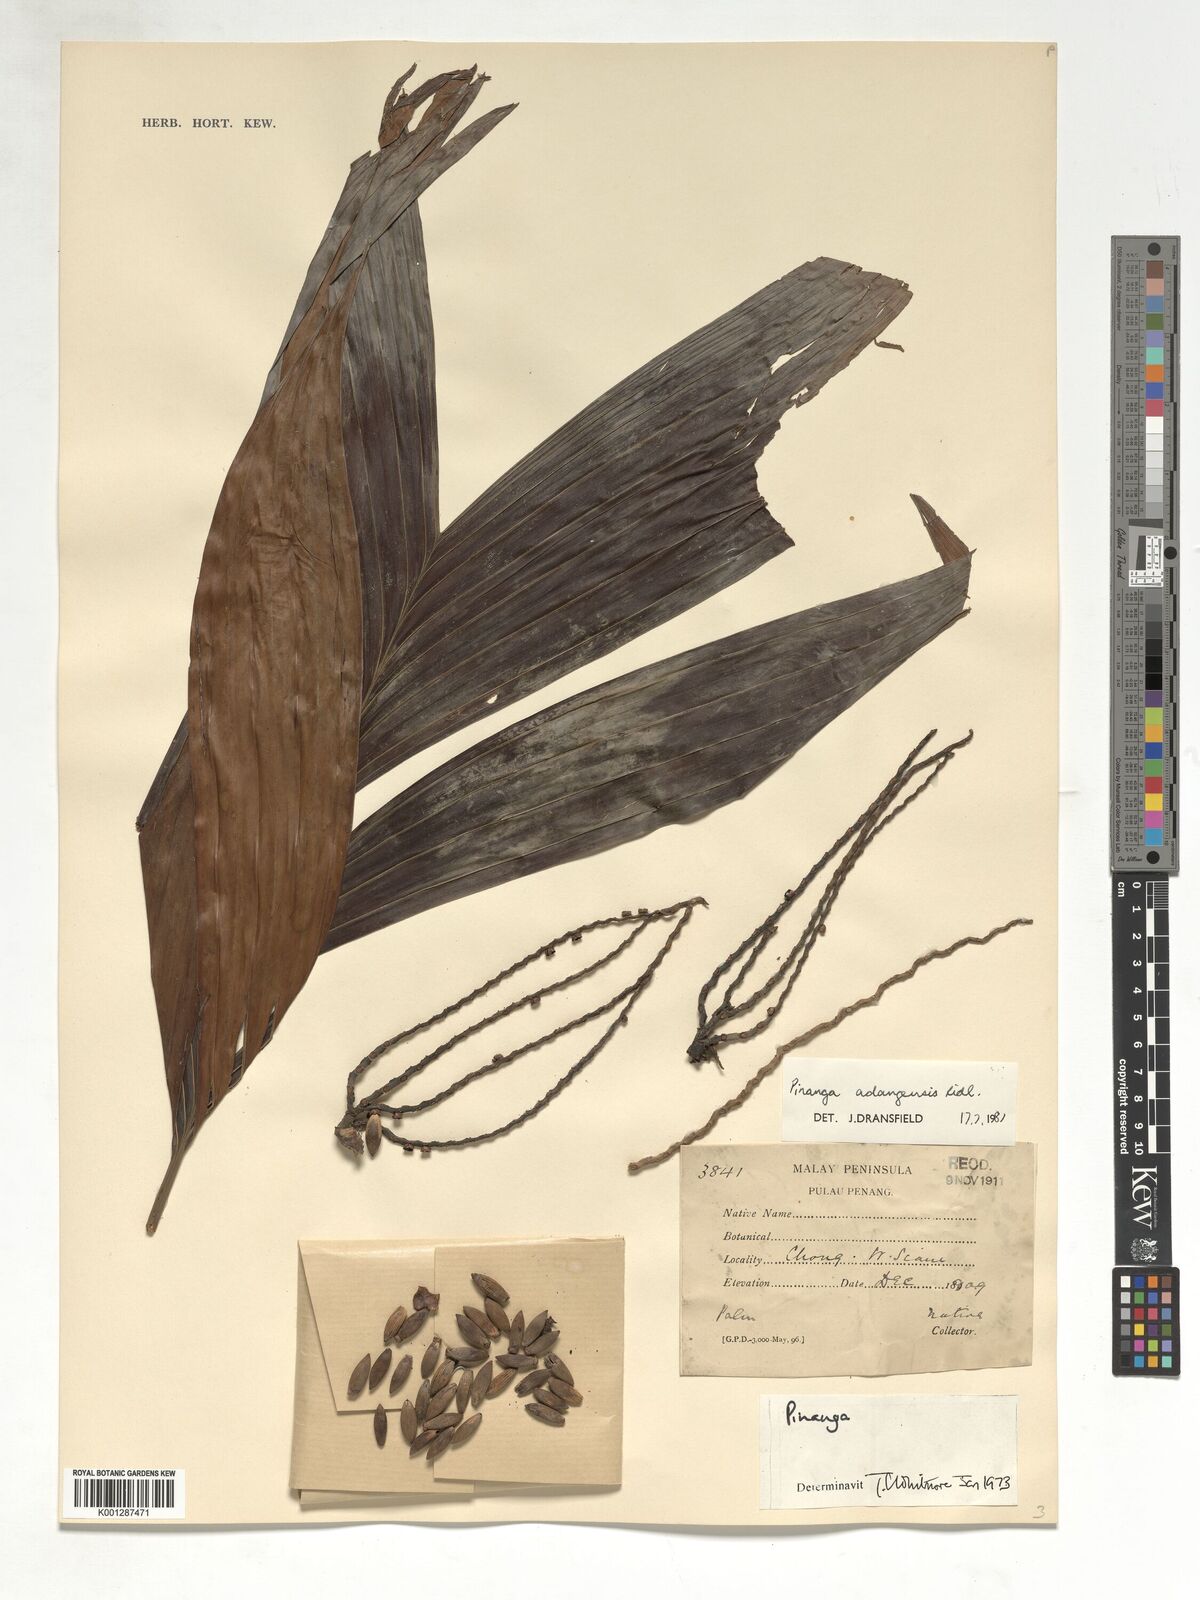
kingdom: Plantae
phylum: Tracheophyta
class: Liliopsida
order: Arecales
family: Arecaceae
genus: Pinanga
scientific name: Pinanga adangensis
